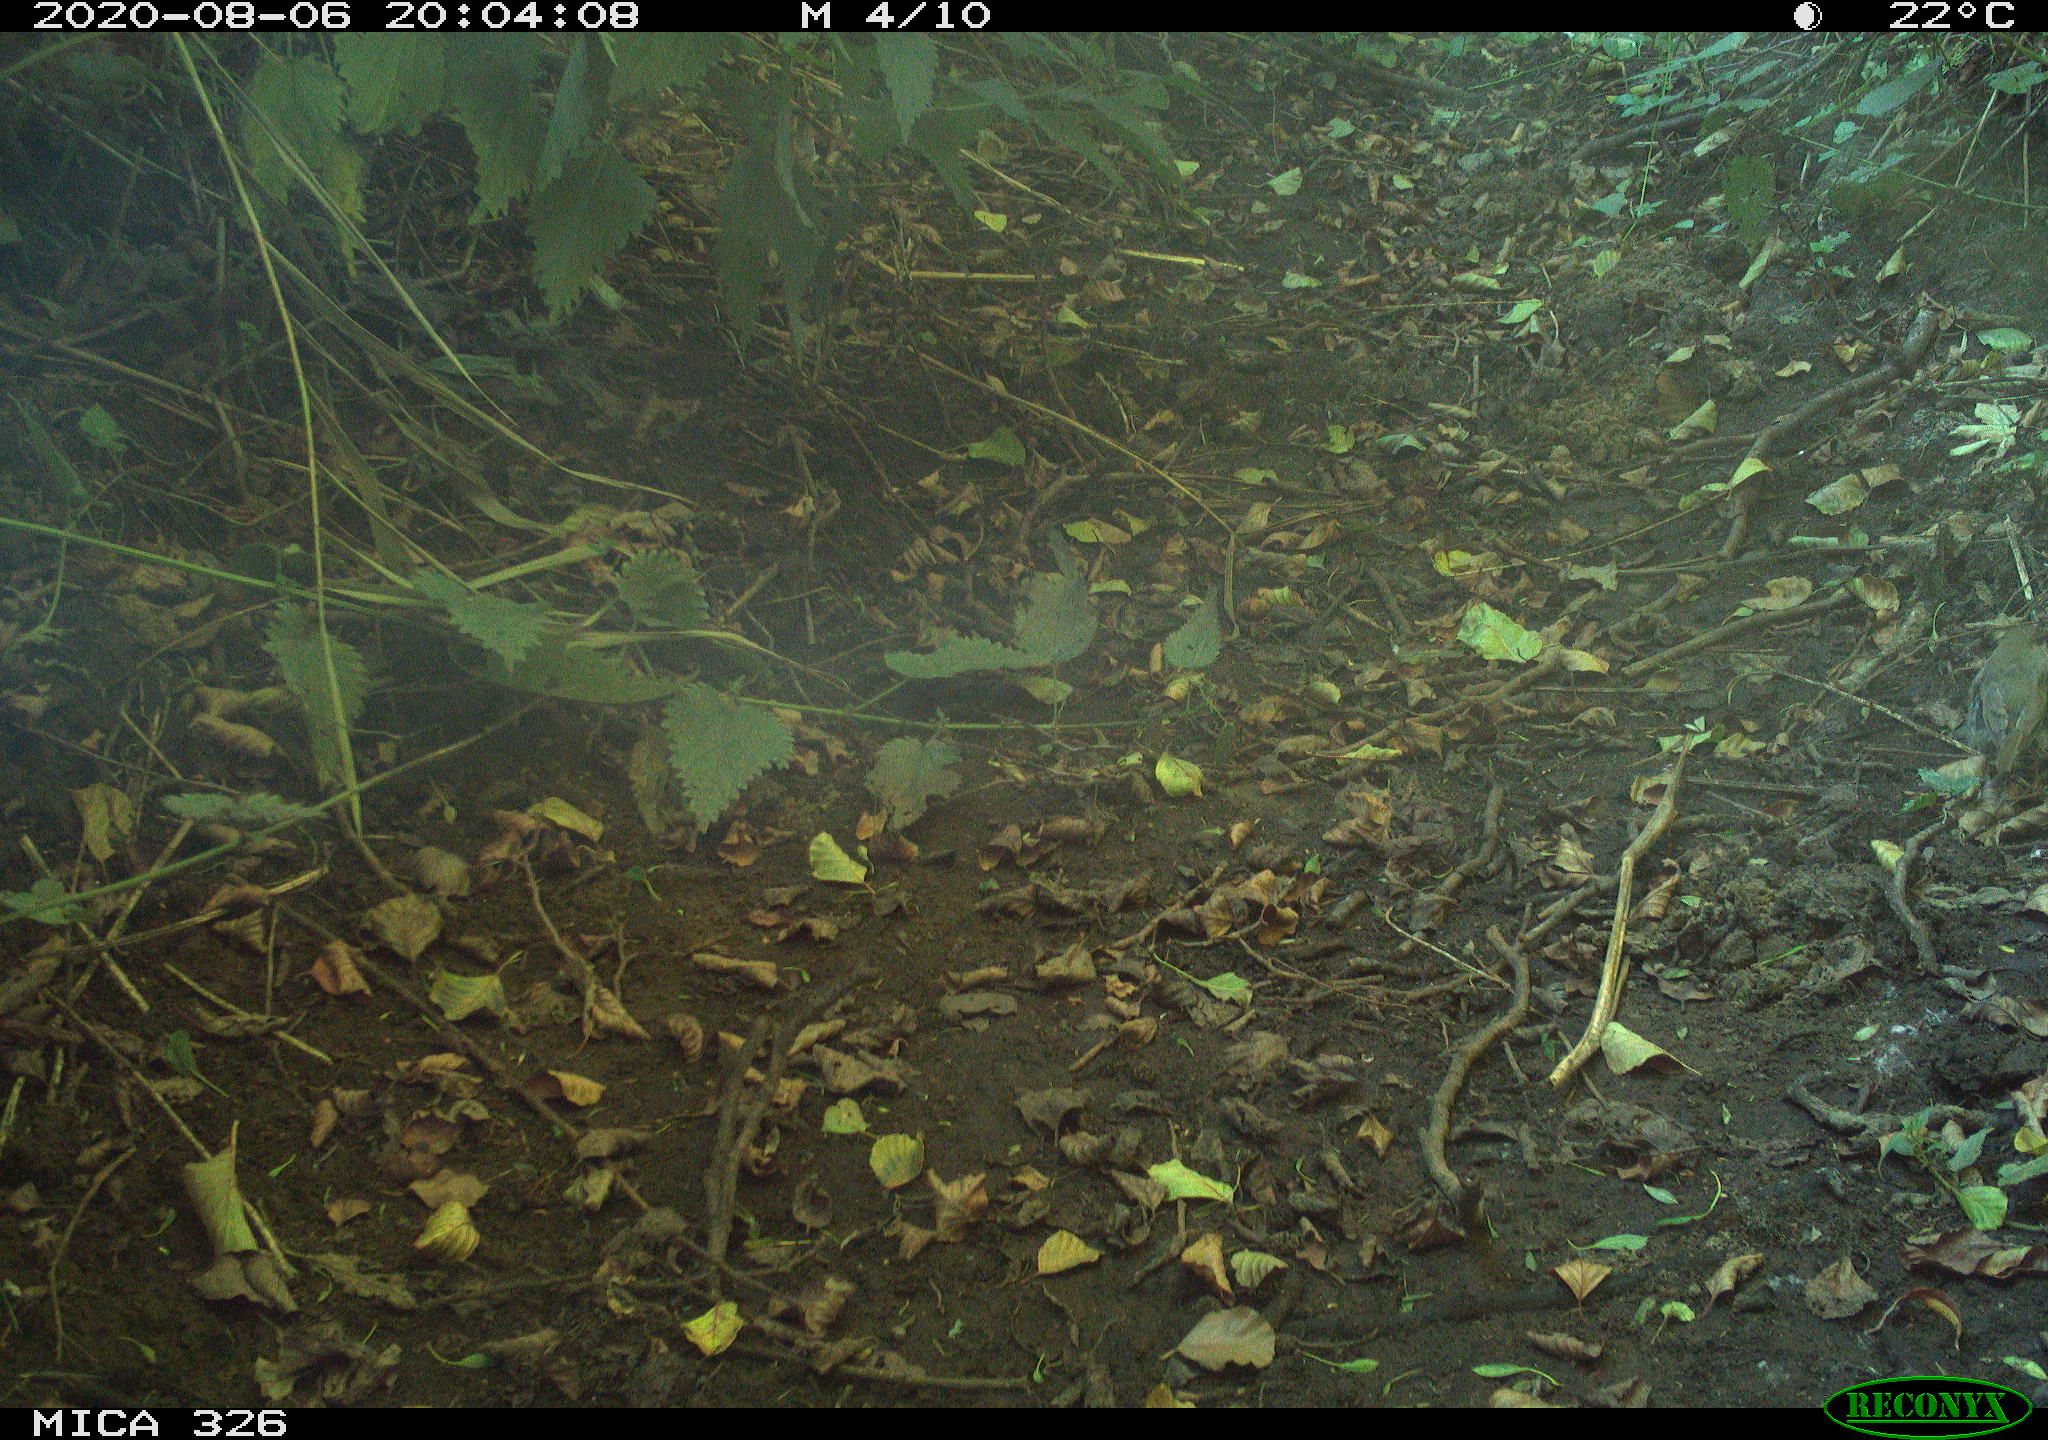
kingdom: Animalia
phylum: Chordata
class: Aves
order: Passeriformes
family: Muscicapidae
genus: Erithacus
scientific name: Erithacus rubecula
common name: European robin
